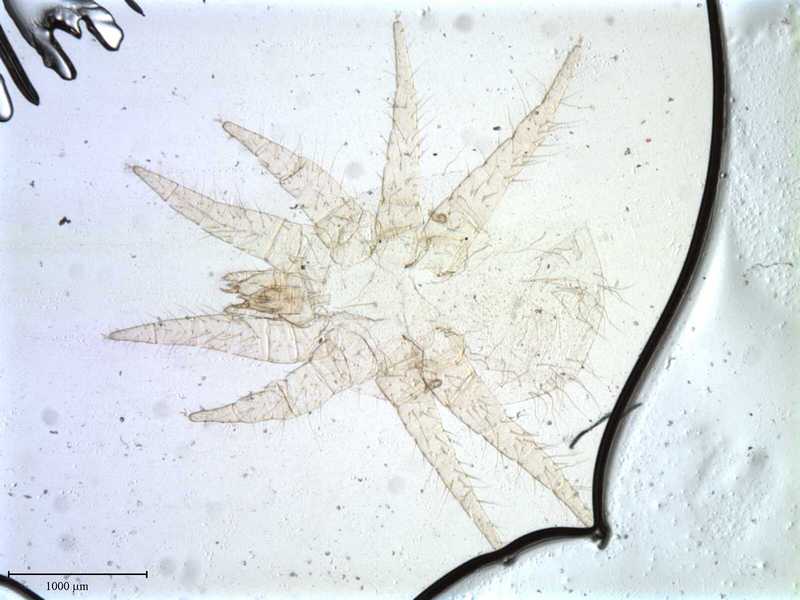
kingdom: Animalia
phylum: Arthropoda
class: Arachnida
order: Mesostigmata
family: Laelapidae
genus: Dinogamasus
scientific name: Dinogamasus
